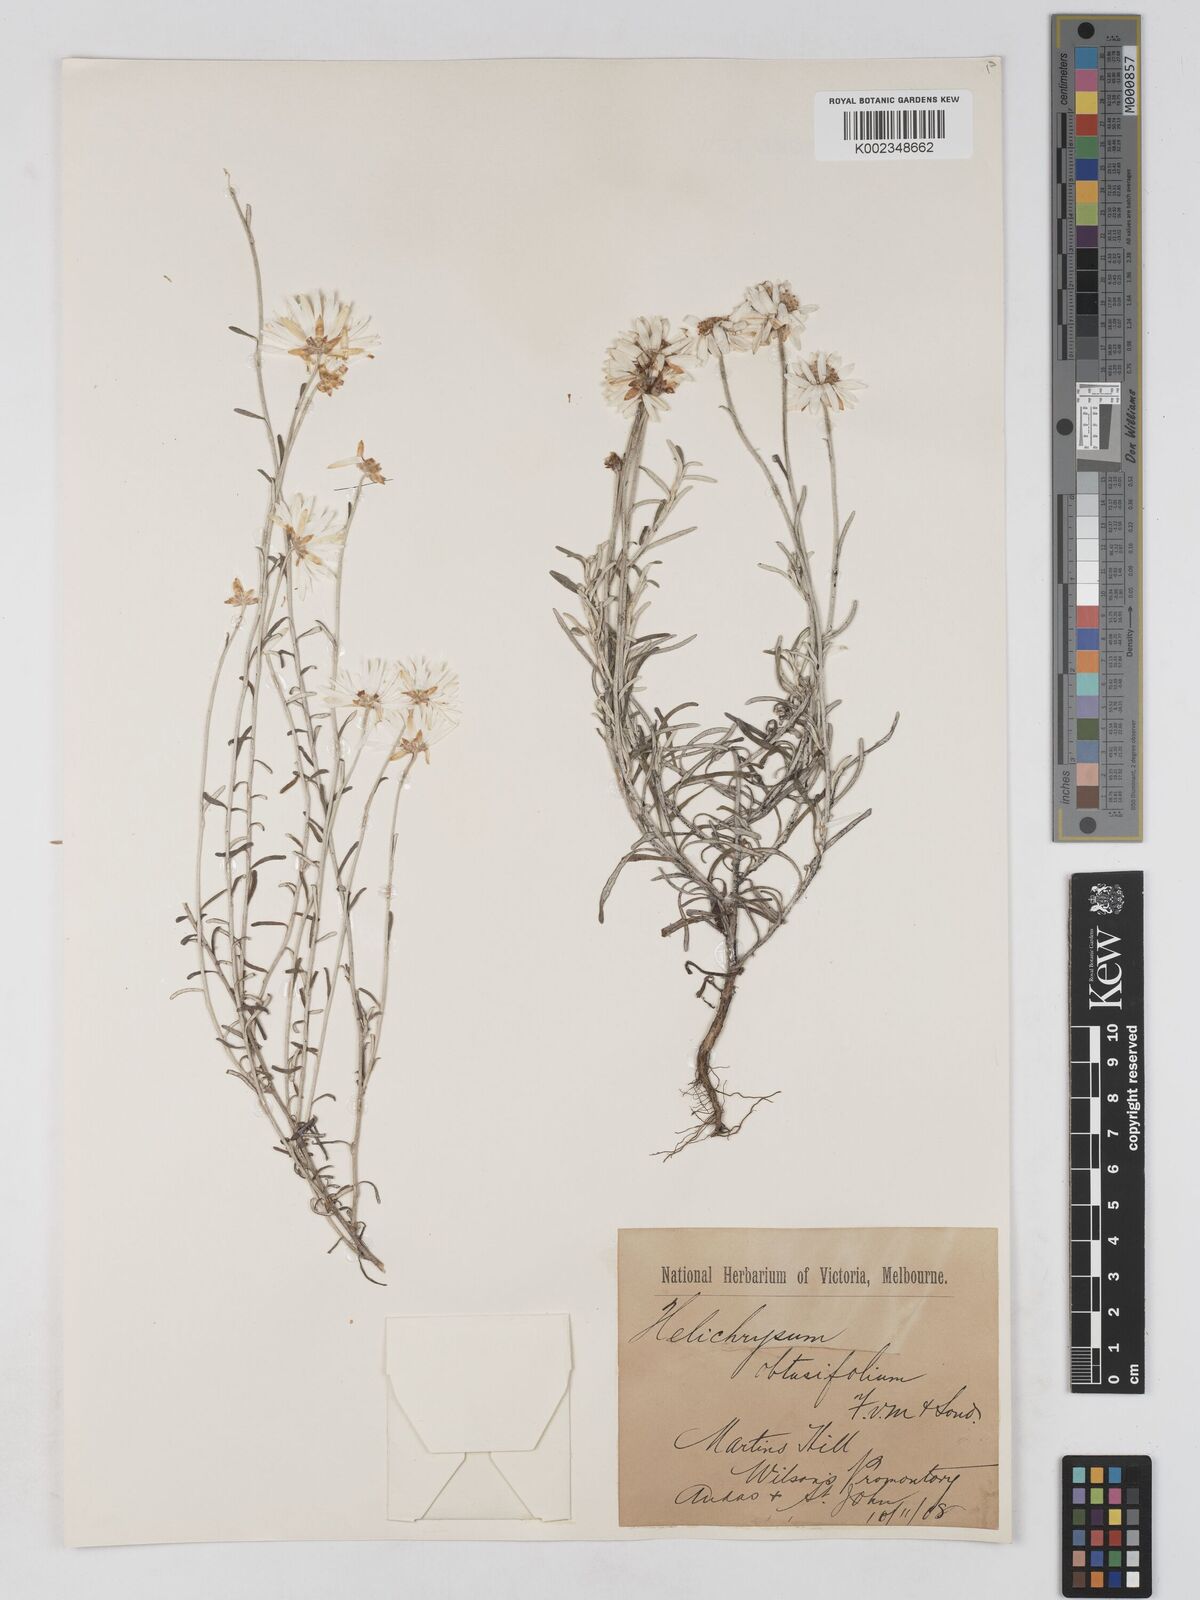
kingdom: Plantae
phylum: Tracheophyta
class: Magnoliopsida
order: Asterales
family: Asteraceae
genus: Argentipallium
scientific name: Argentipallium obtusifolium
